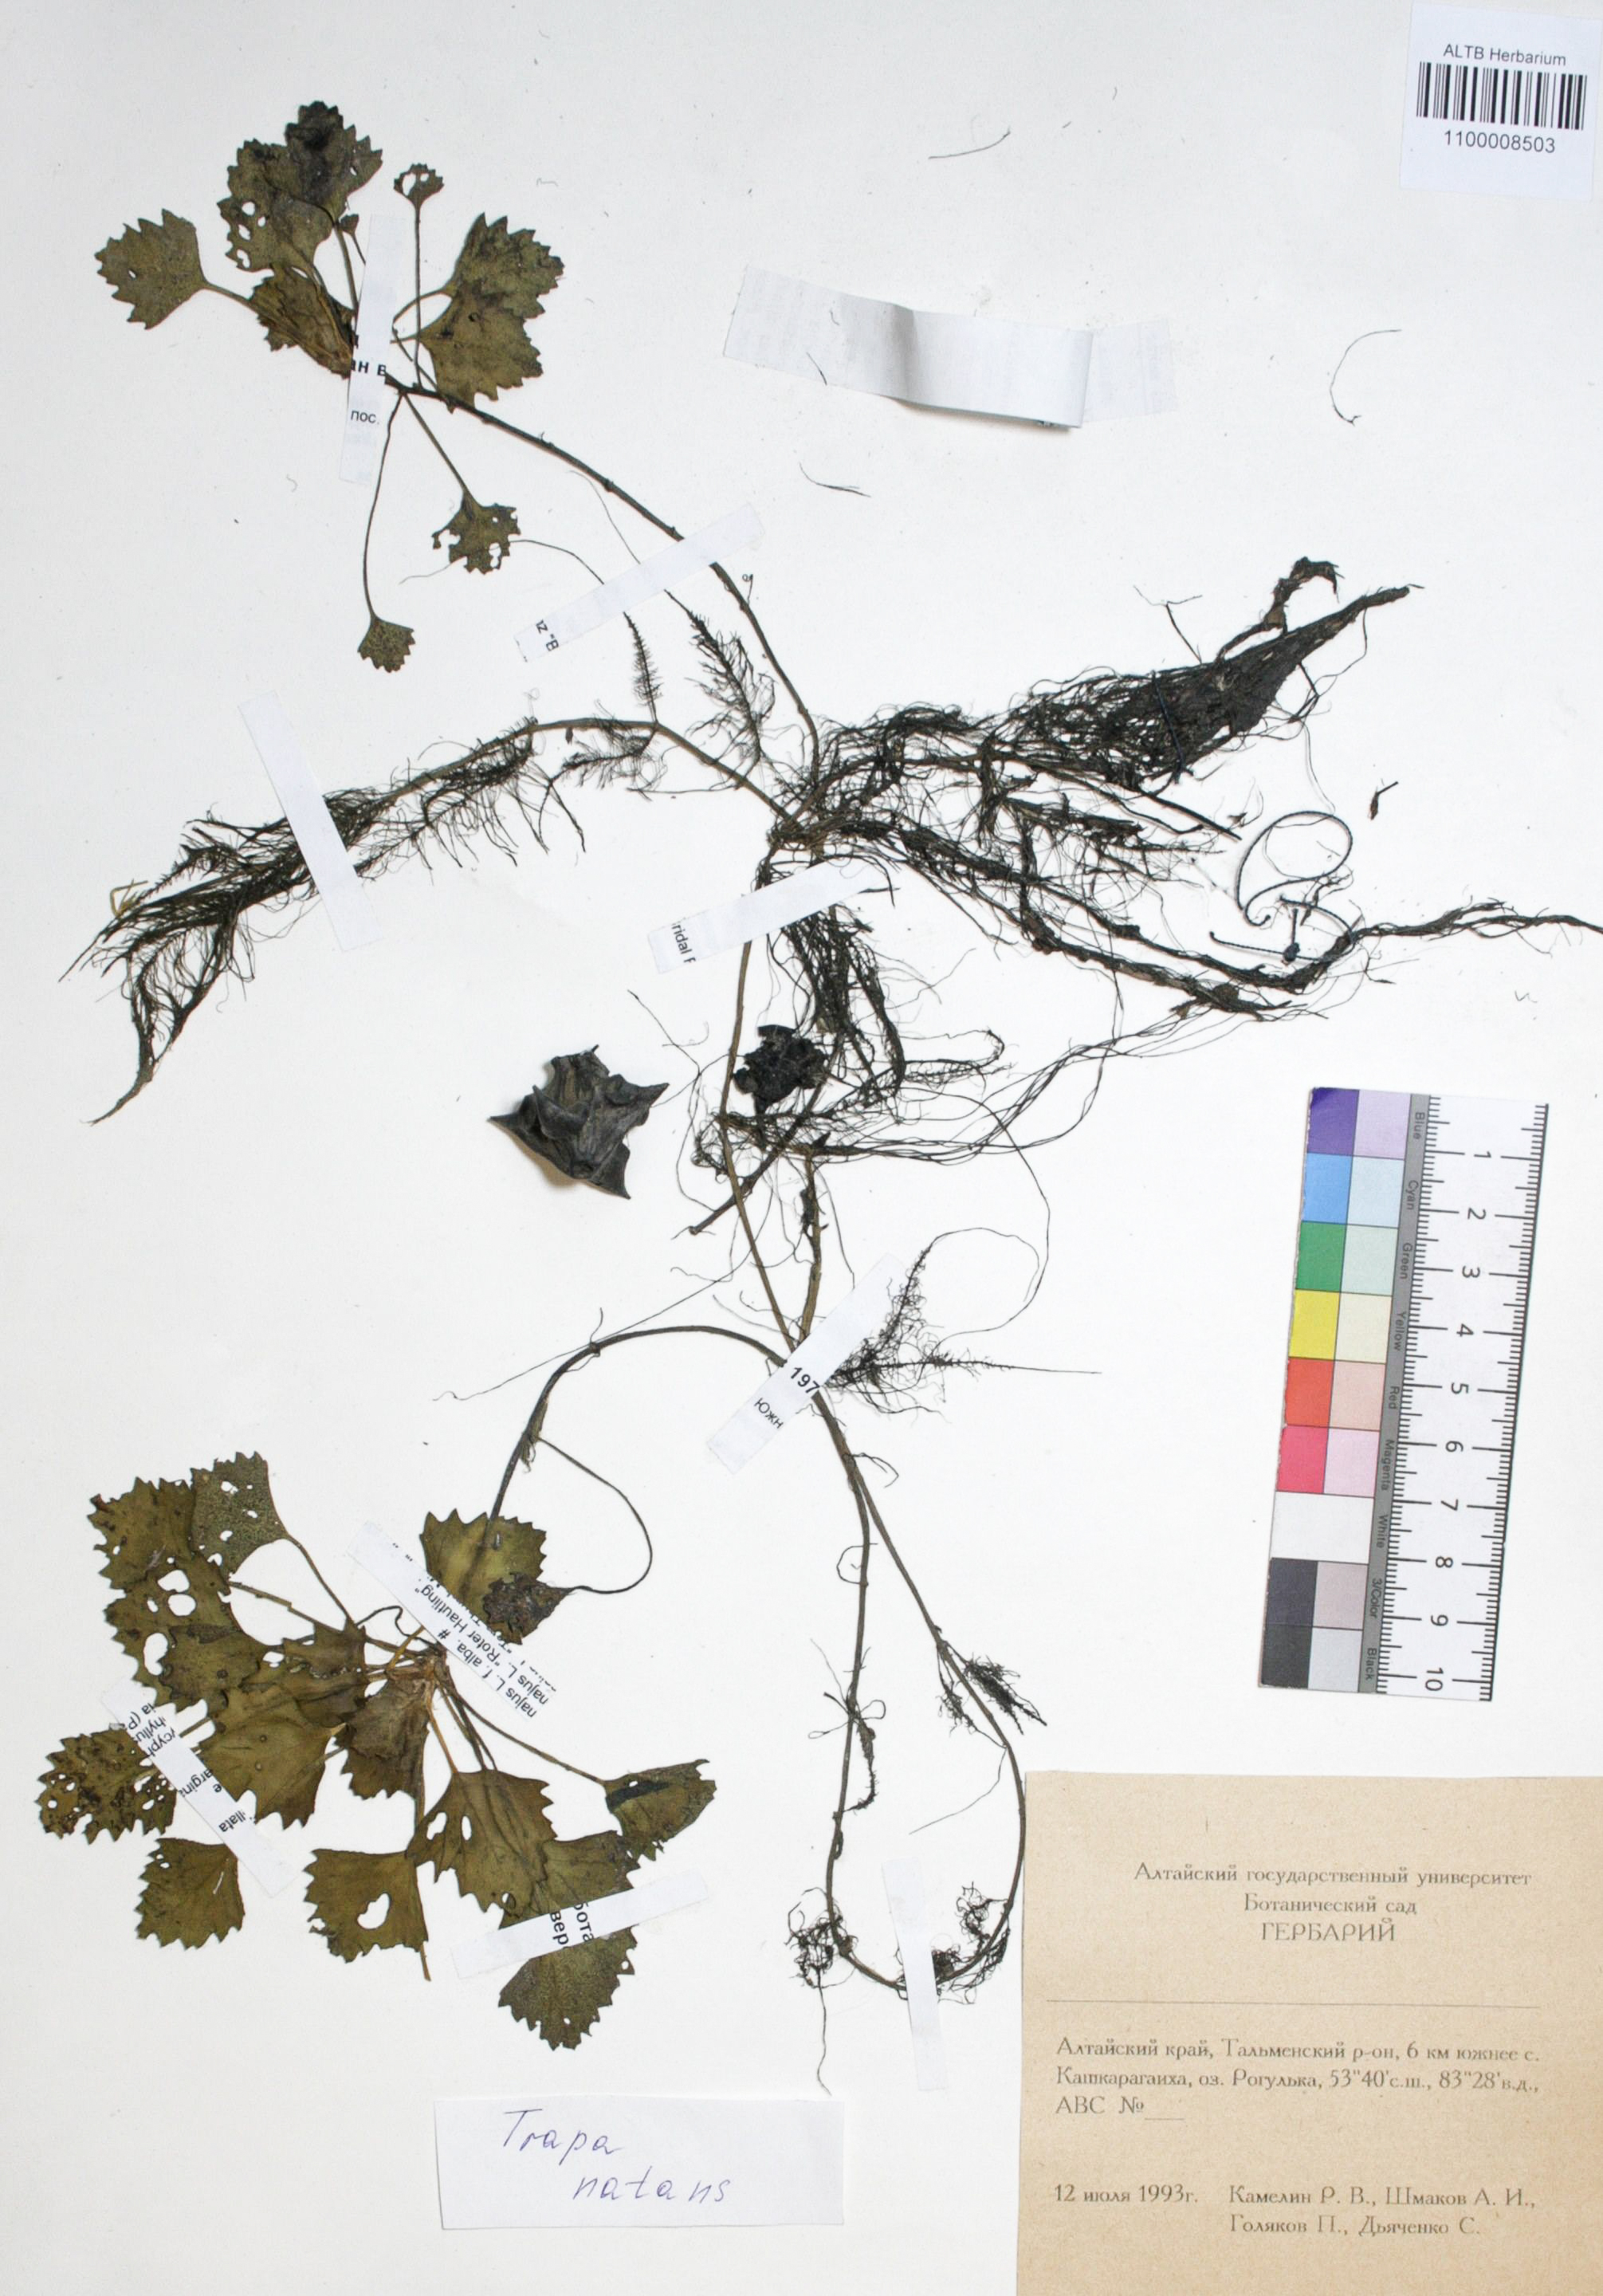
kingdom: Plantae
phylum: Tracheophyta
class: Magnoliopsida
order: Myrtales
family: Lythraceae
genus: Trapa
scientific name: Trapa natans
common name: Water chestnut
